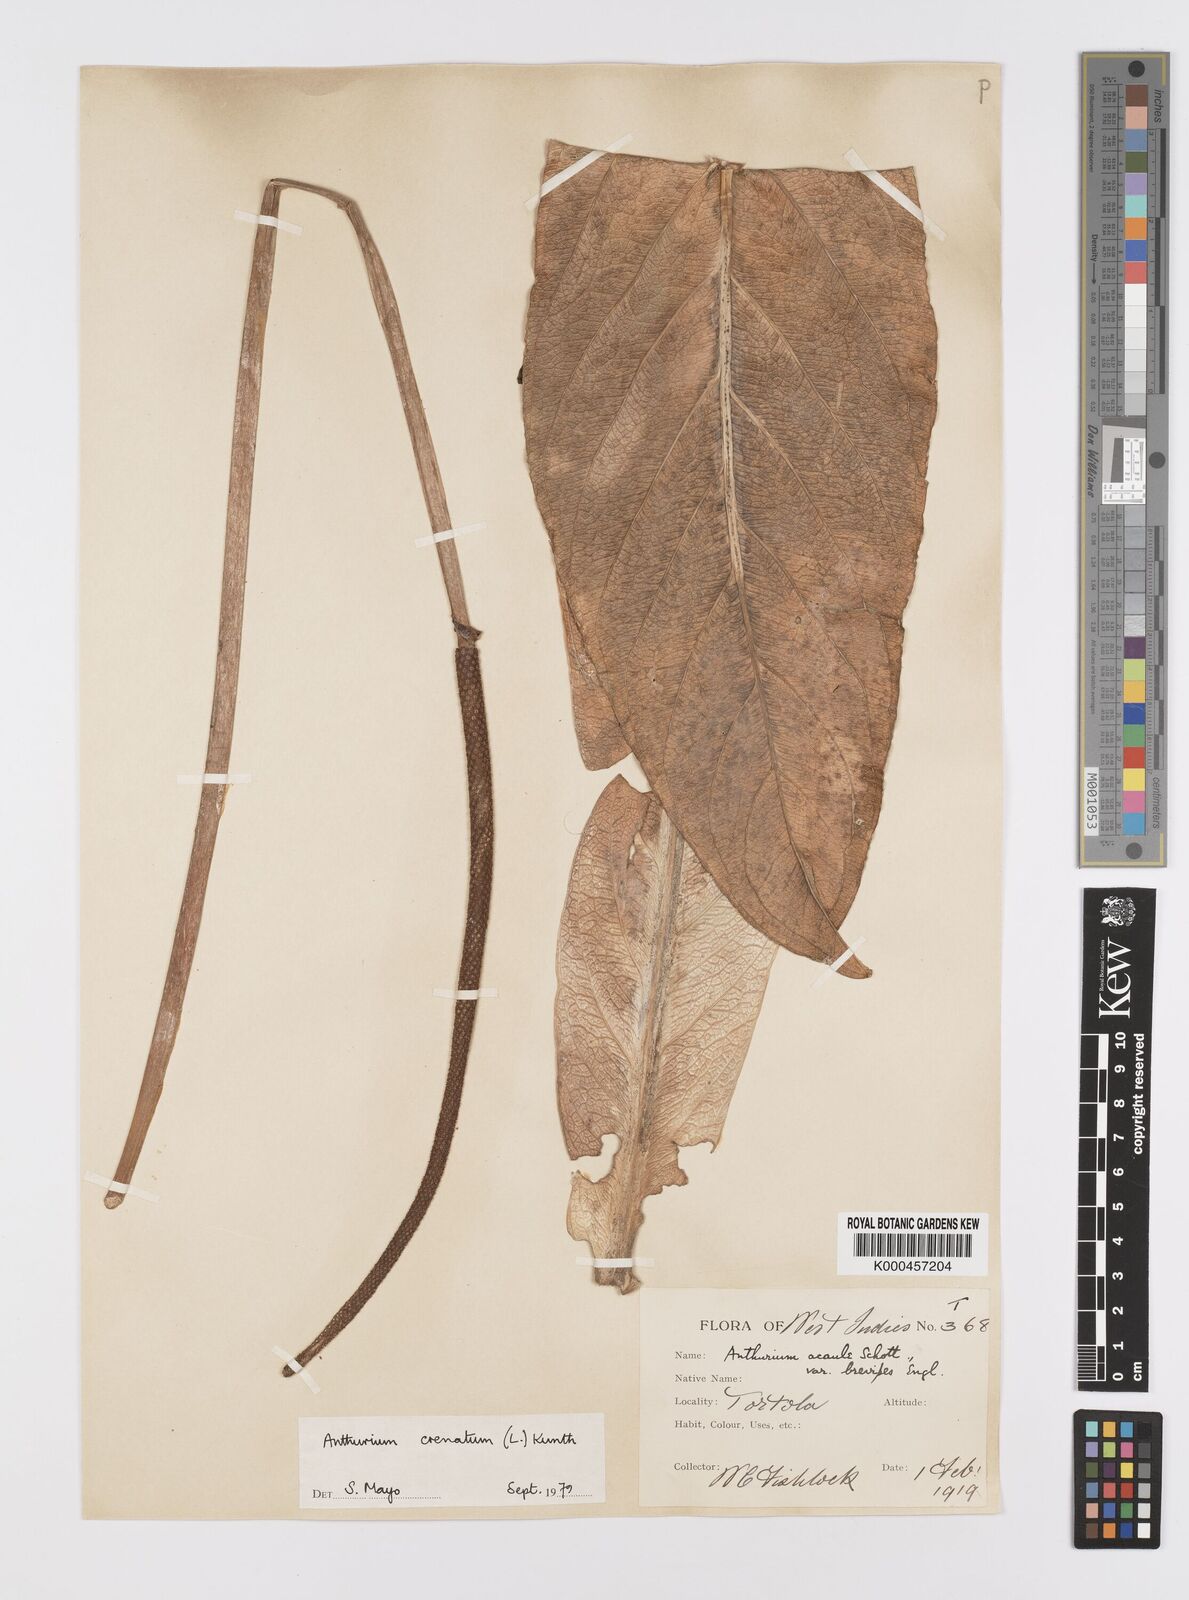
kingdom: Plantae
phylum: Tracheophyta
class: Liliopsida
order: Alismatales
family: Araceae
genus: Anthurium
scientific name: Anthurium crenatum
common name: Scalloped laceleaf
